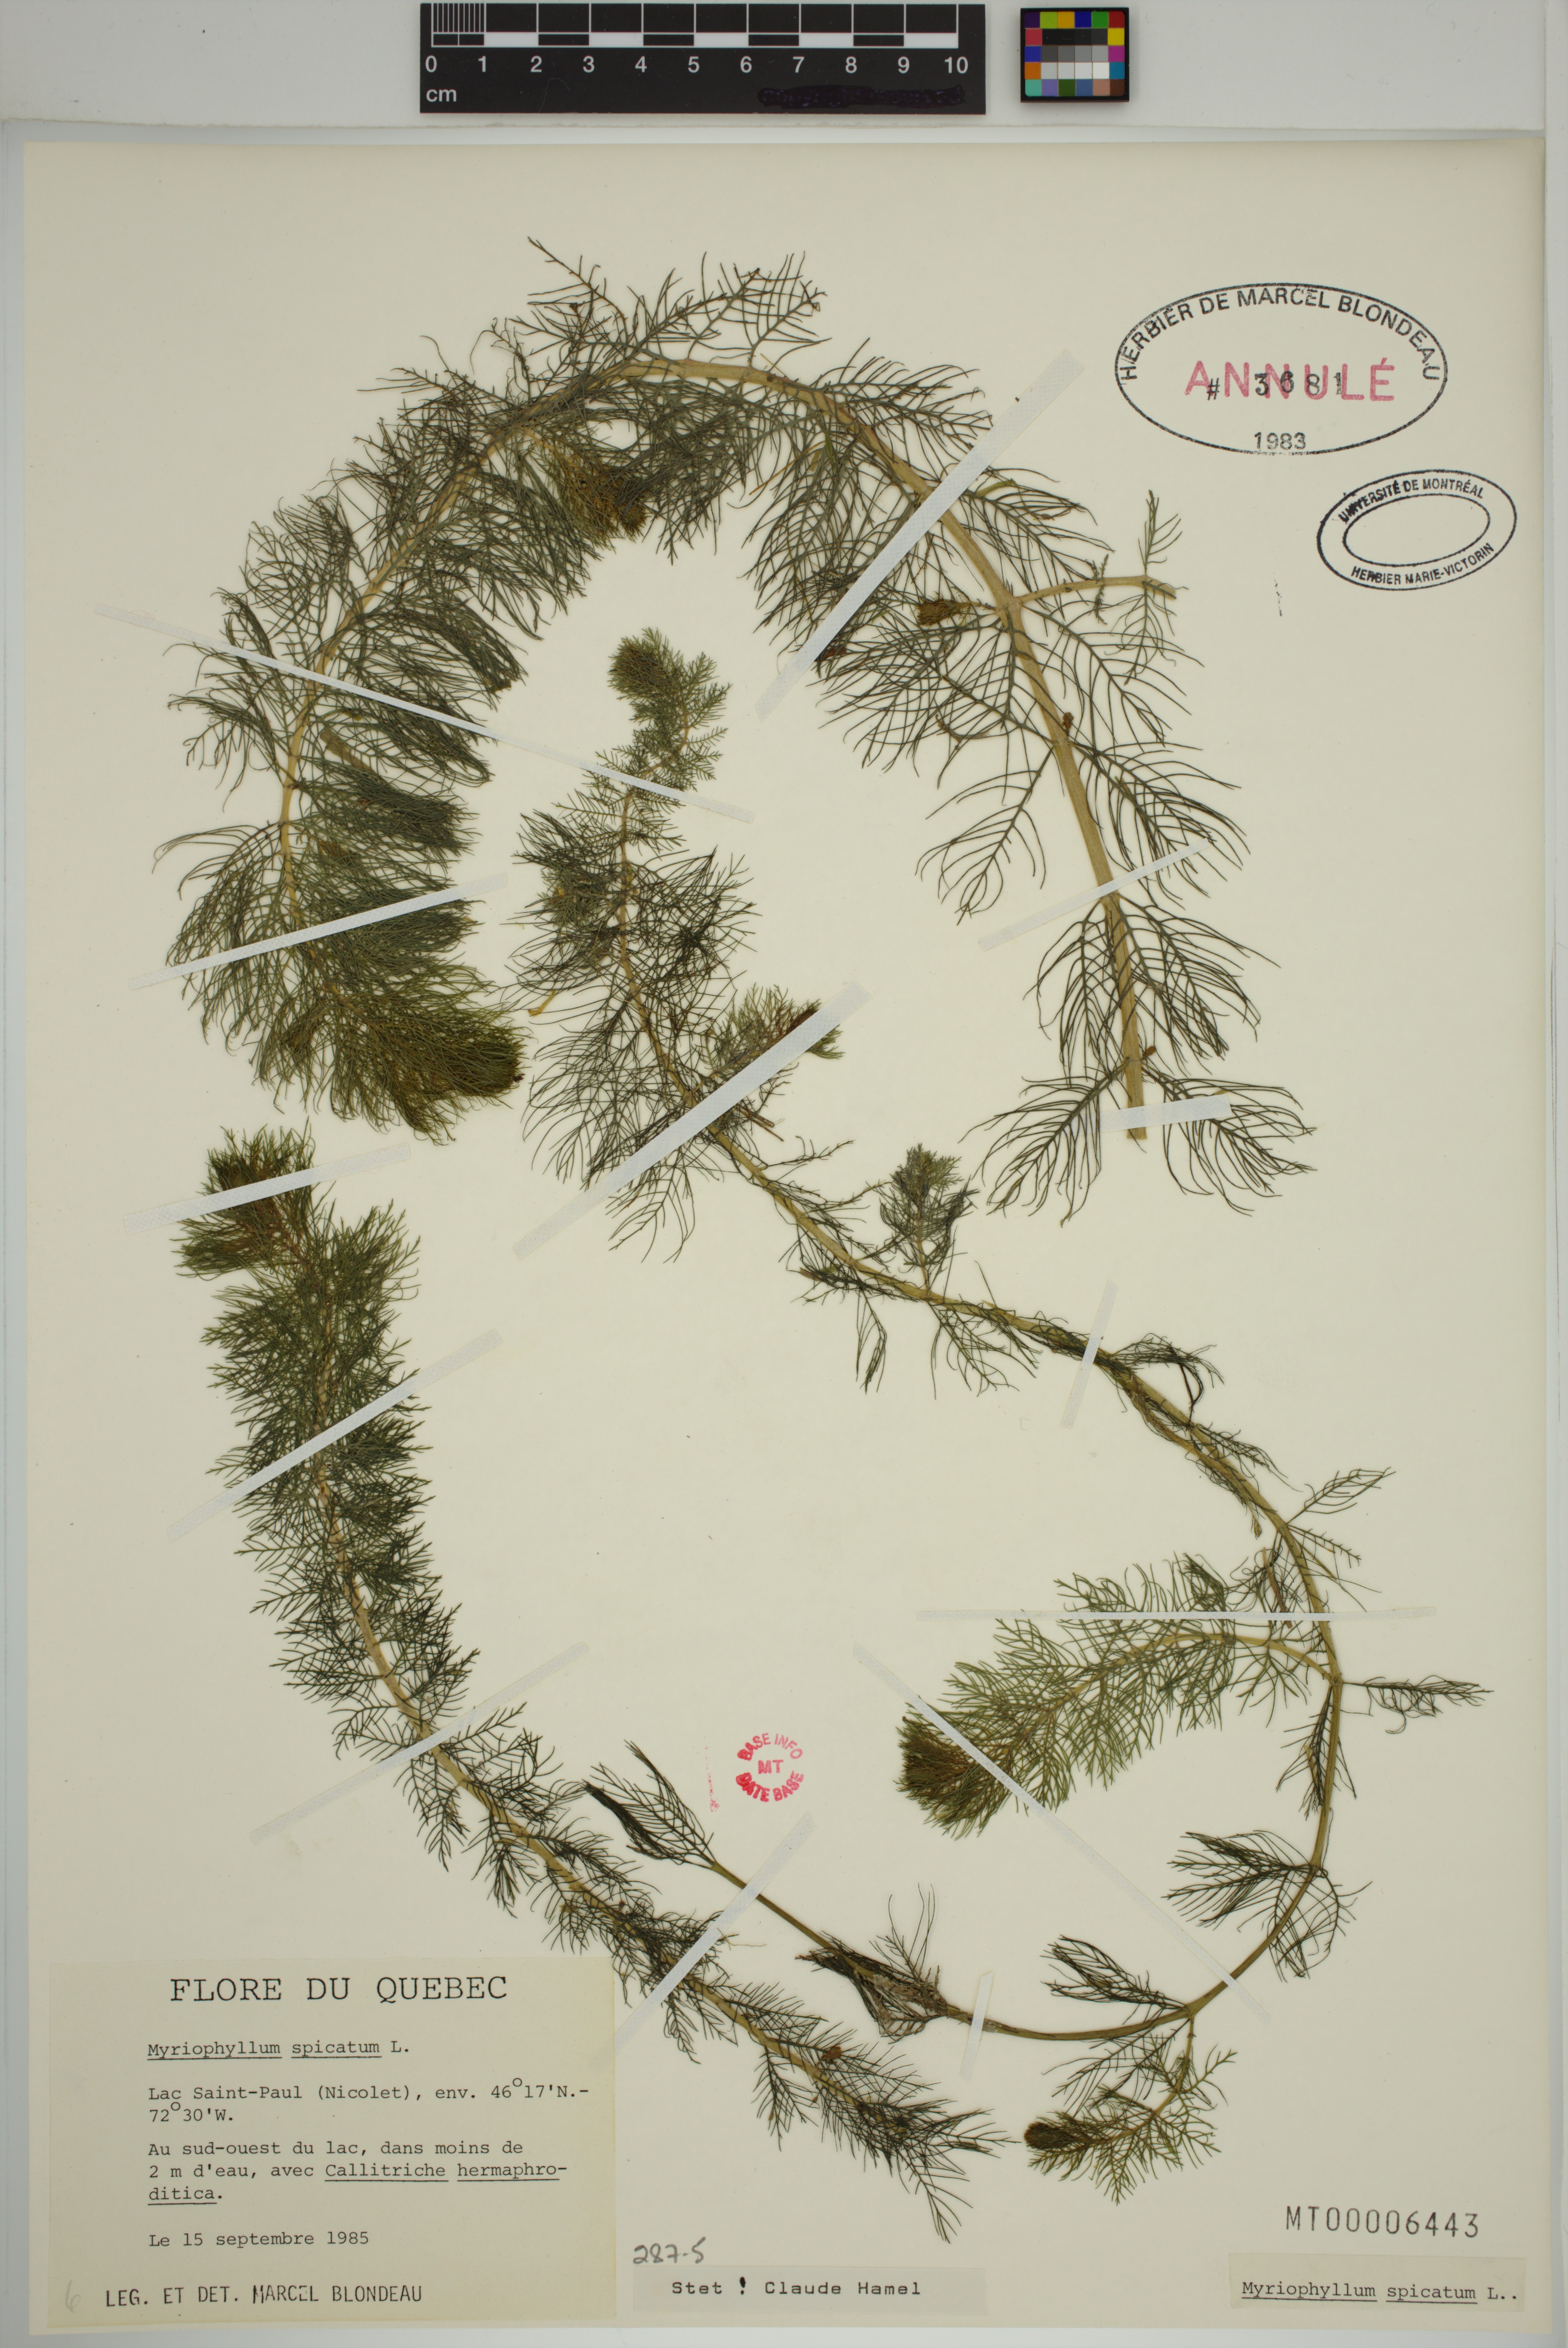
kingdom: Plantae
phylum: Tracheophyta
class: Magnoliopsida
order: Saxifragales
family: Haloragaceae
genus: Myriophyllum
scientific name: Myriophyllum spicatum
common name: Spiked water-milfoil
